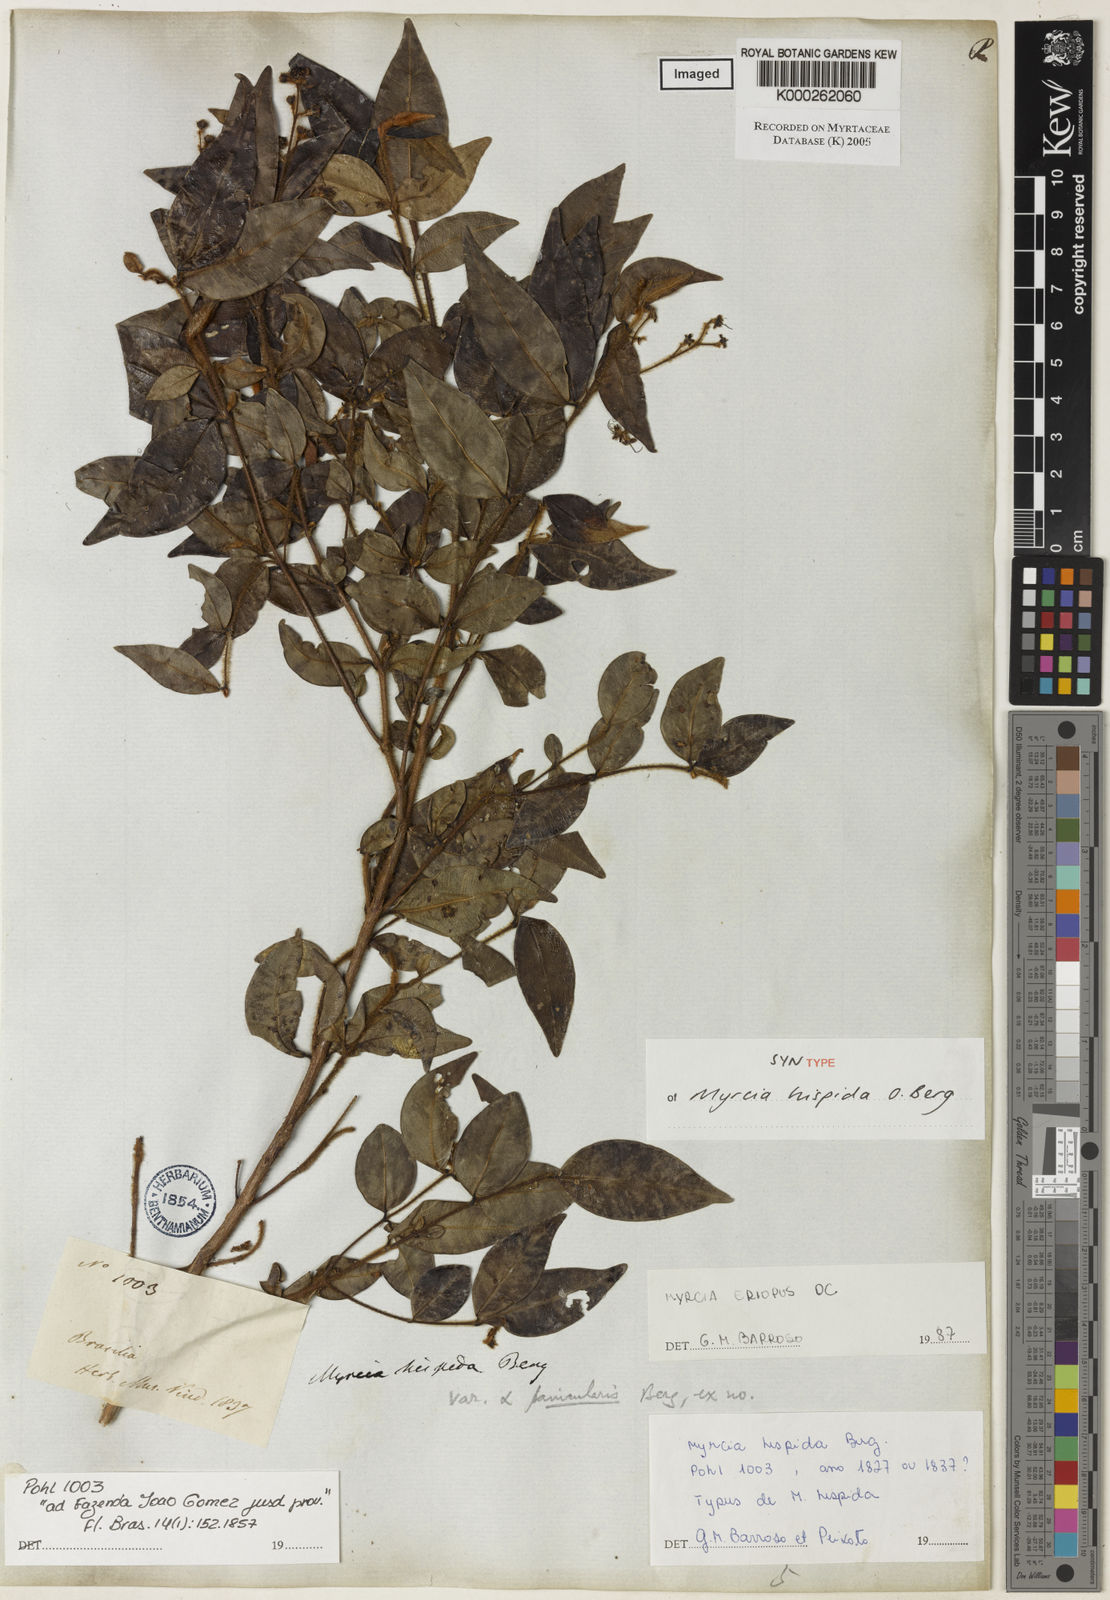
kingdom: Plantae
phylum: Tracheophyta
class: Magnoliopsida
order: Myrtales
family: Myrtaceae
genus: Myrcia
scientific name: Myrcia hispida
